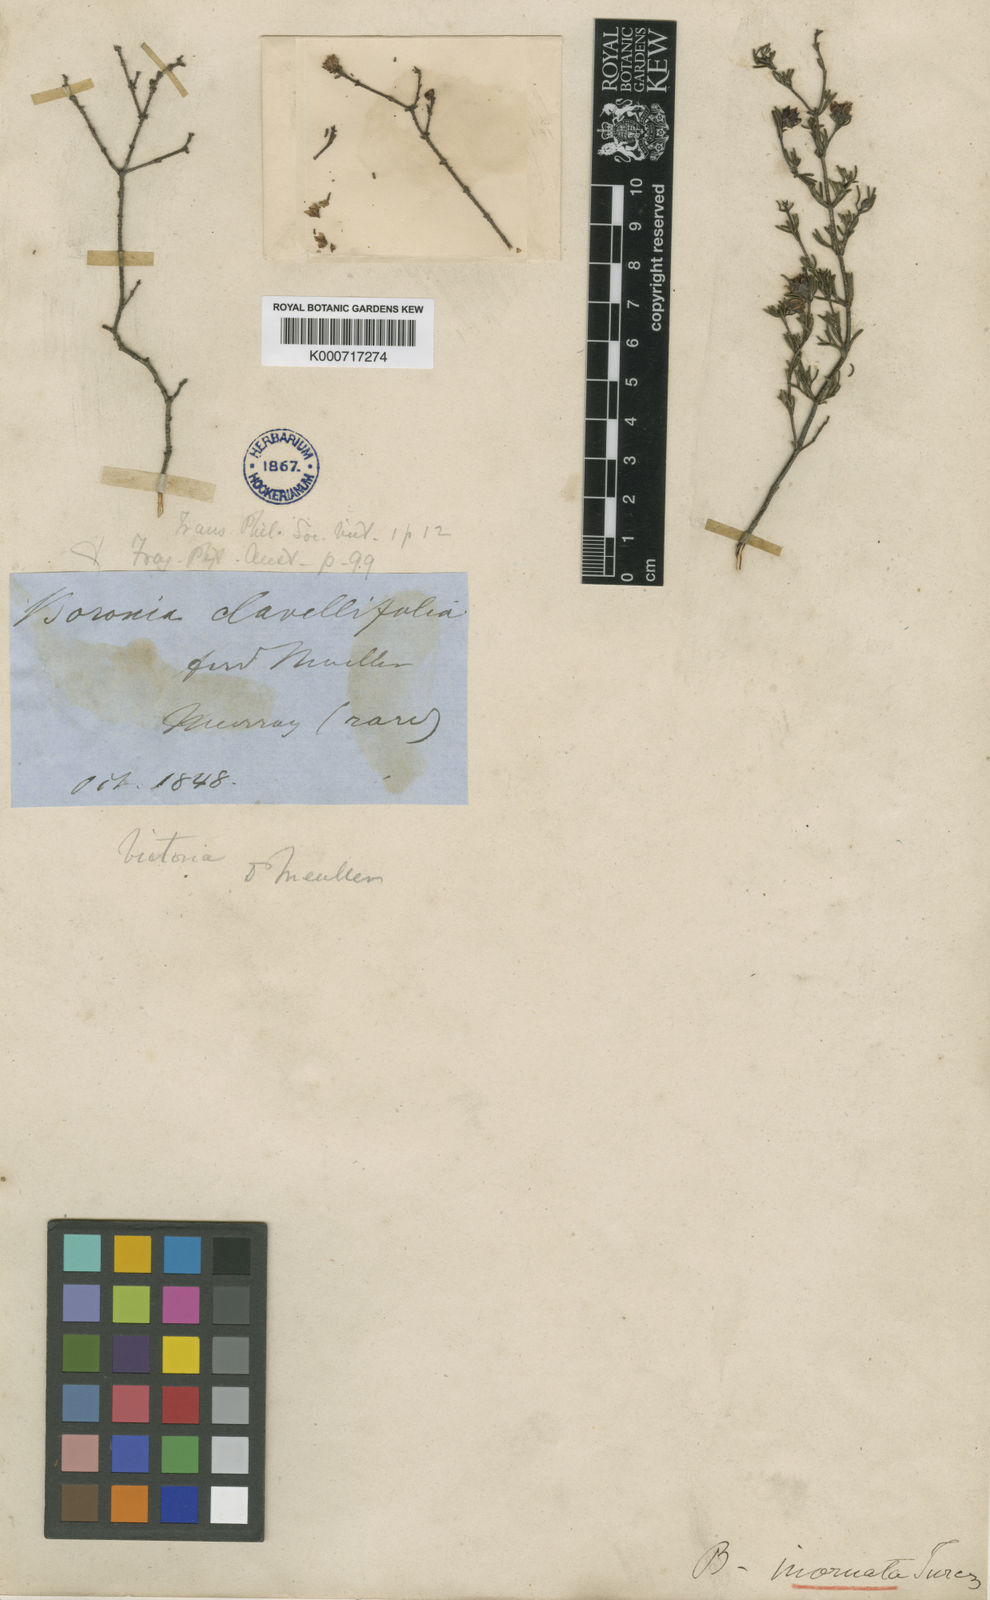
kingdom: Plantae
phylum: Tracheophyta
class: Magnoliopsida
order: Sapindales
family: Rutaceae
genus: Boronia
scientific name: Boronia inornata
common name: Desert boronia
